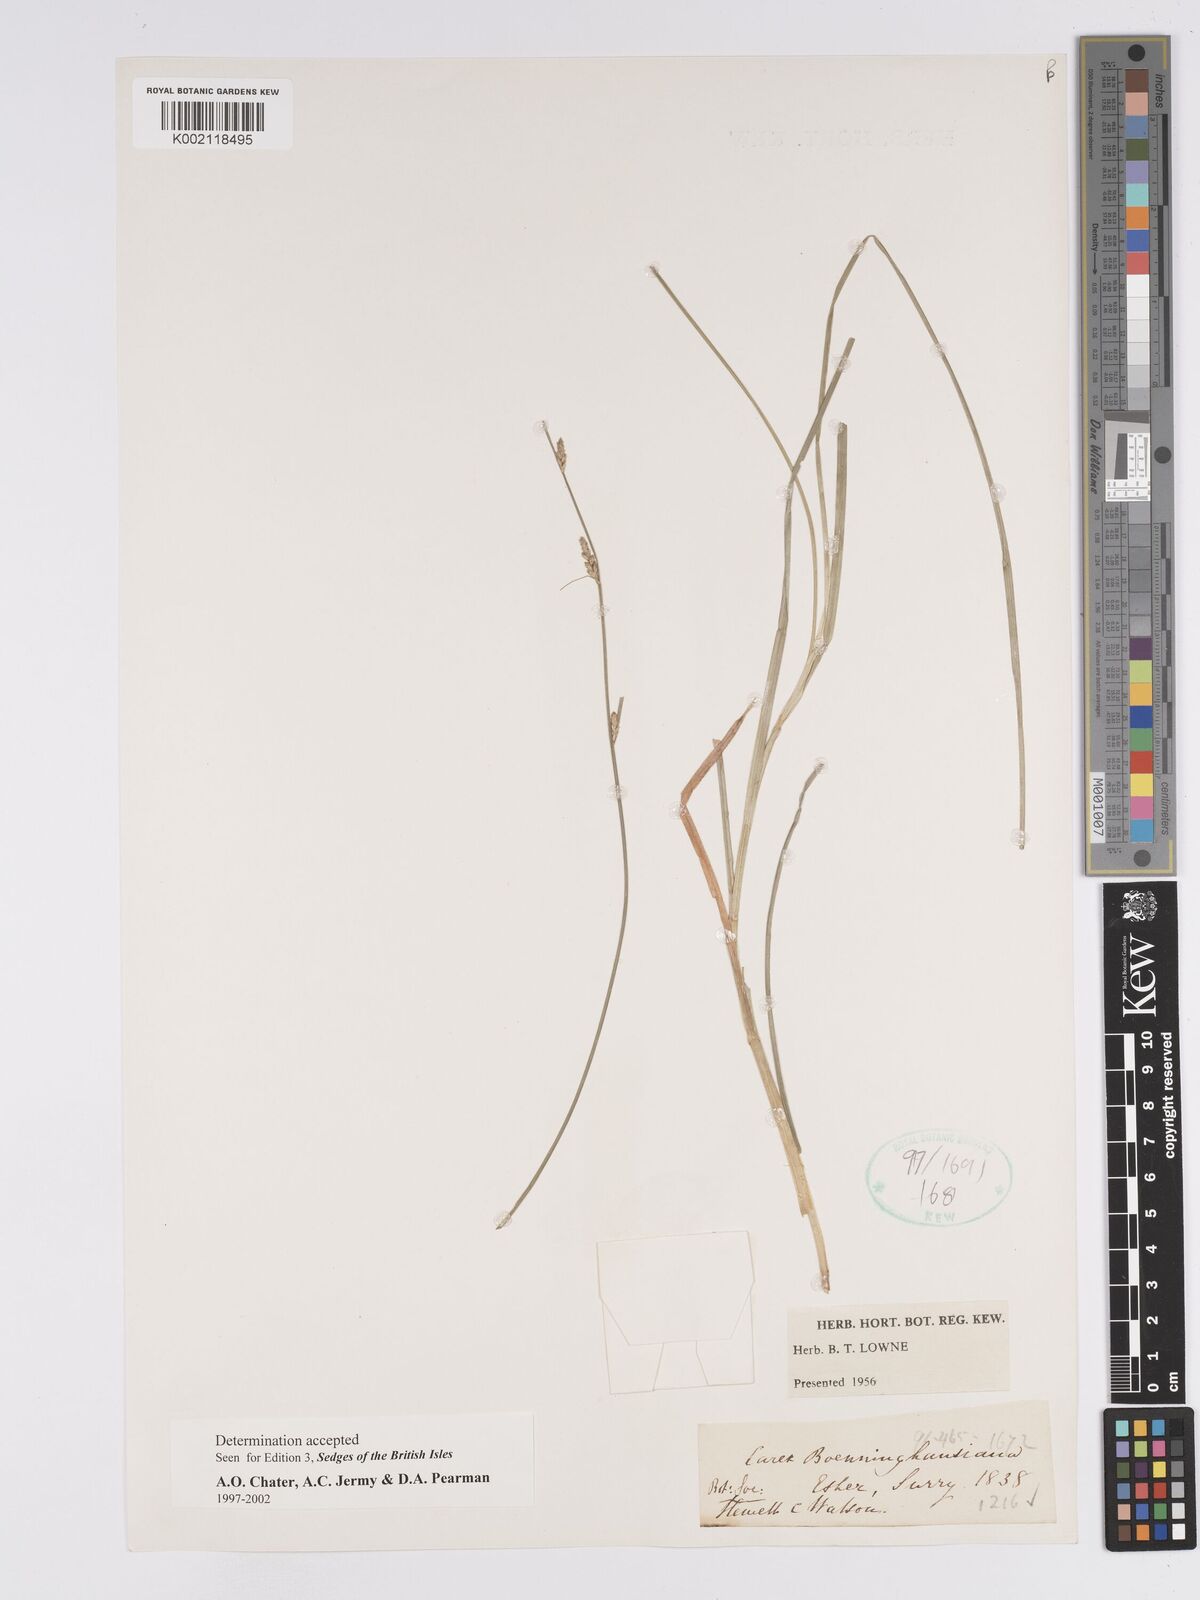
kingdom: Plantae
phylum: Tracheophyta
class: Liliopsida
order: Poales
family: Cyperaceae
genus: Carex
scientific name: Carex boenninghausiana
